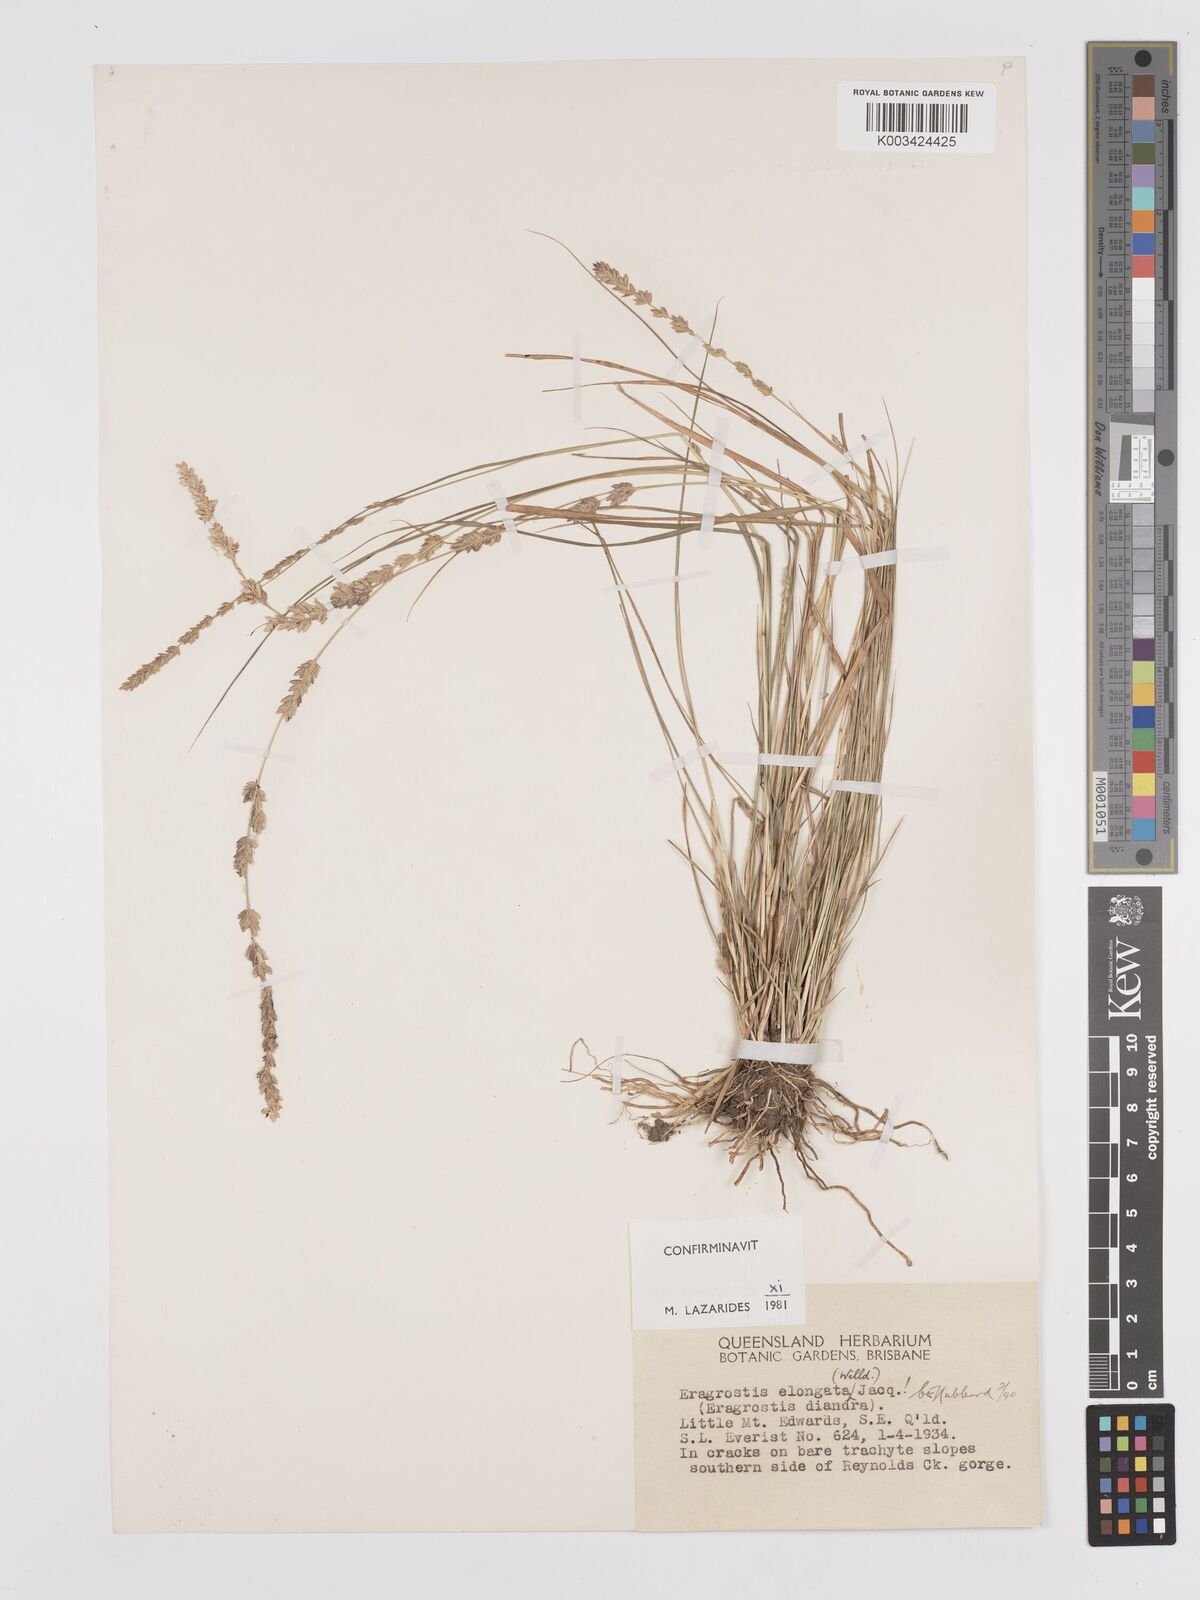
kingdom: Plantae
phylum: Tracheophyta
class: Liliopsida
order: Poales
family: Poaceae
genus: Eragrostis
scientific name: Eragrostis elongata
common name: Long lovegrass
